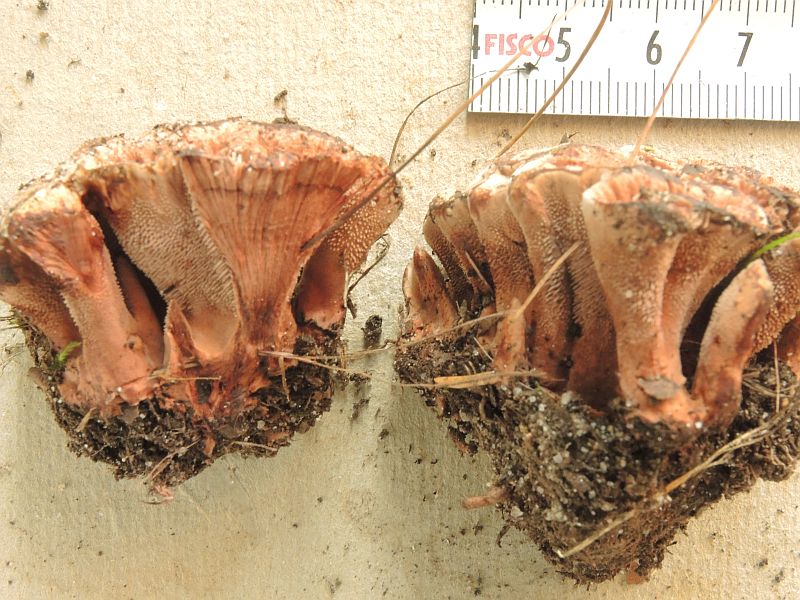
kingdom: Fungi
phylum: Basidiomycota
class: Agaricomycetes
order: Thelephorales
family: Bankeraceae
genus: Hydnellum
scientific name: Hydnellum concrescens
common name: Zoned tooth
